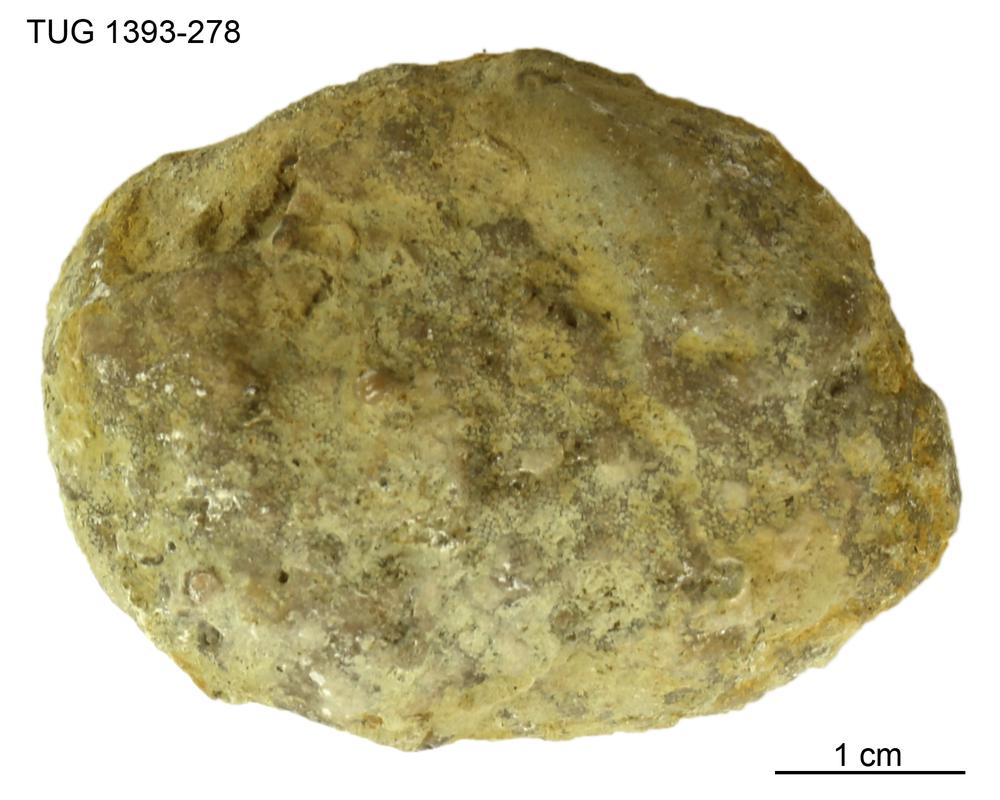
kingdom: Animalia
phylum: Bryozoa
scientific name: Bryozoa
